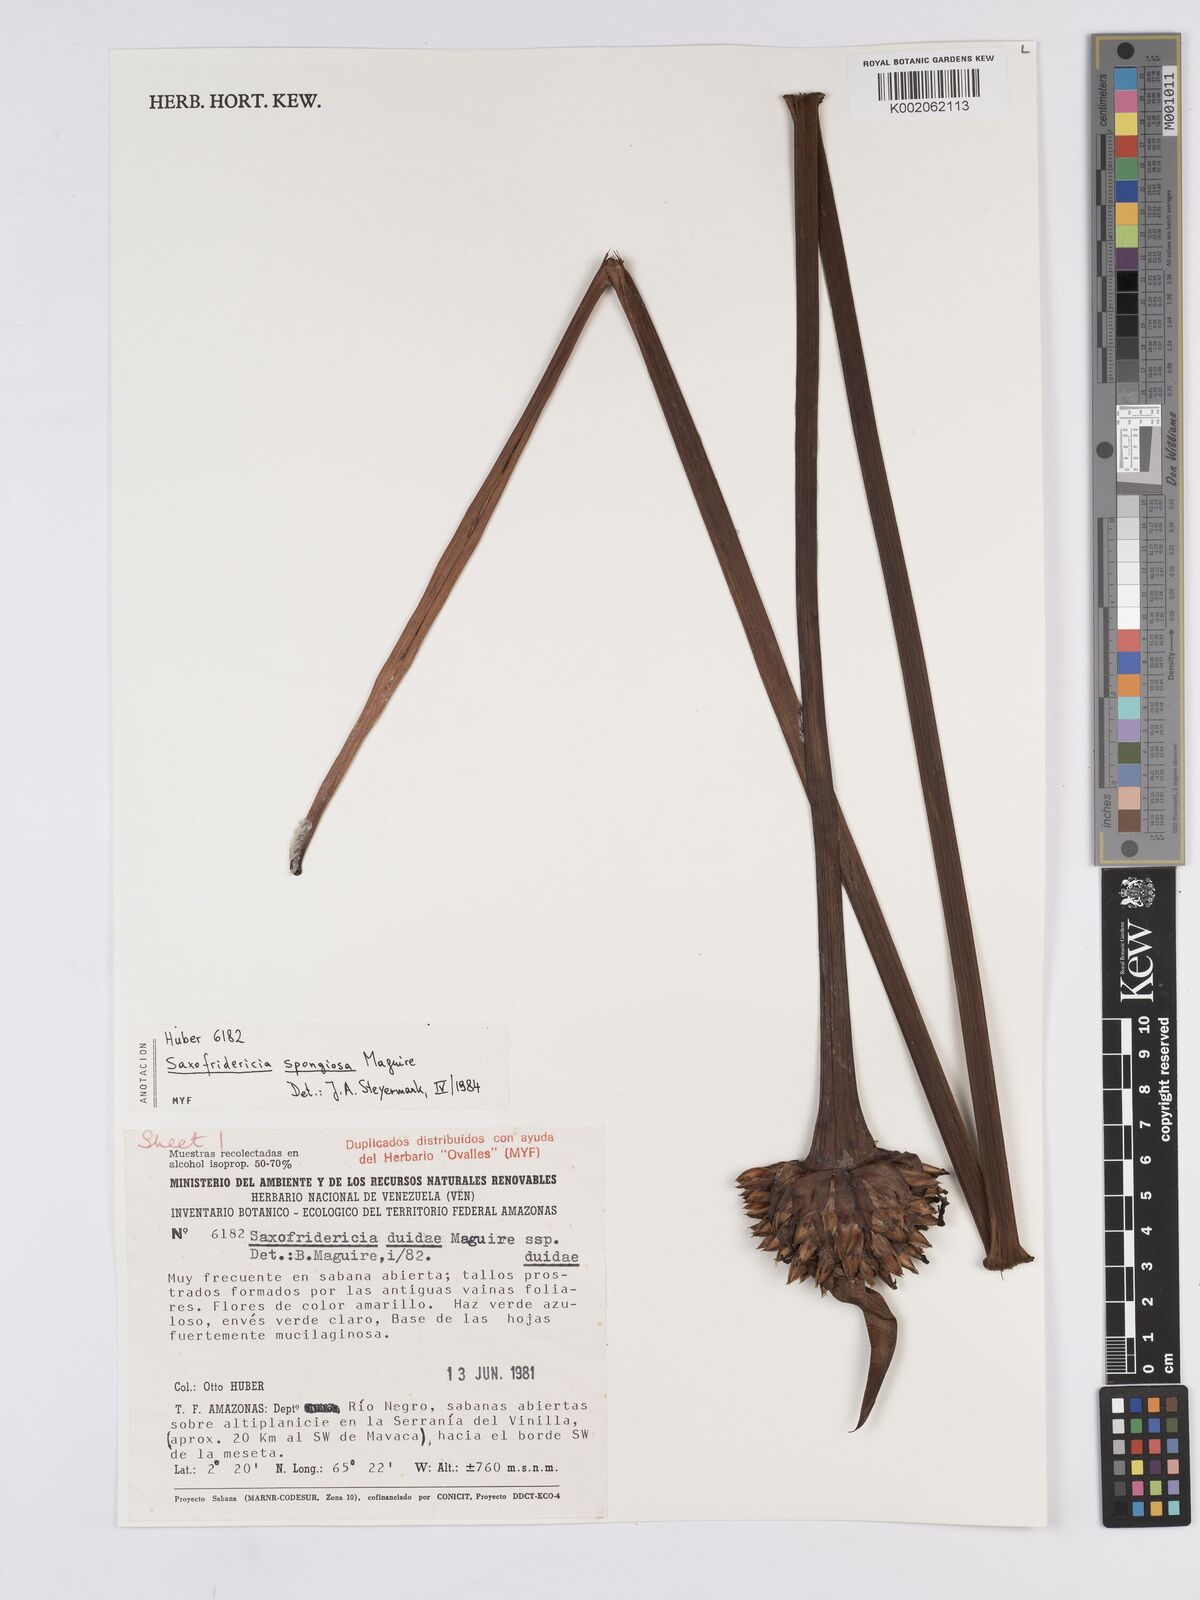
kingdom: Plantae
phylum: Tracheophyta
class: Liliopsida
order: Poales
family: Rapateaceae
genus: Saxofridericia
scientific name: Saxofridericia spongiosa
